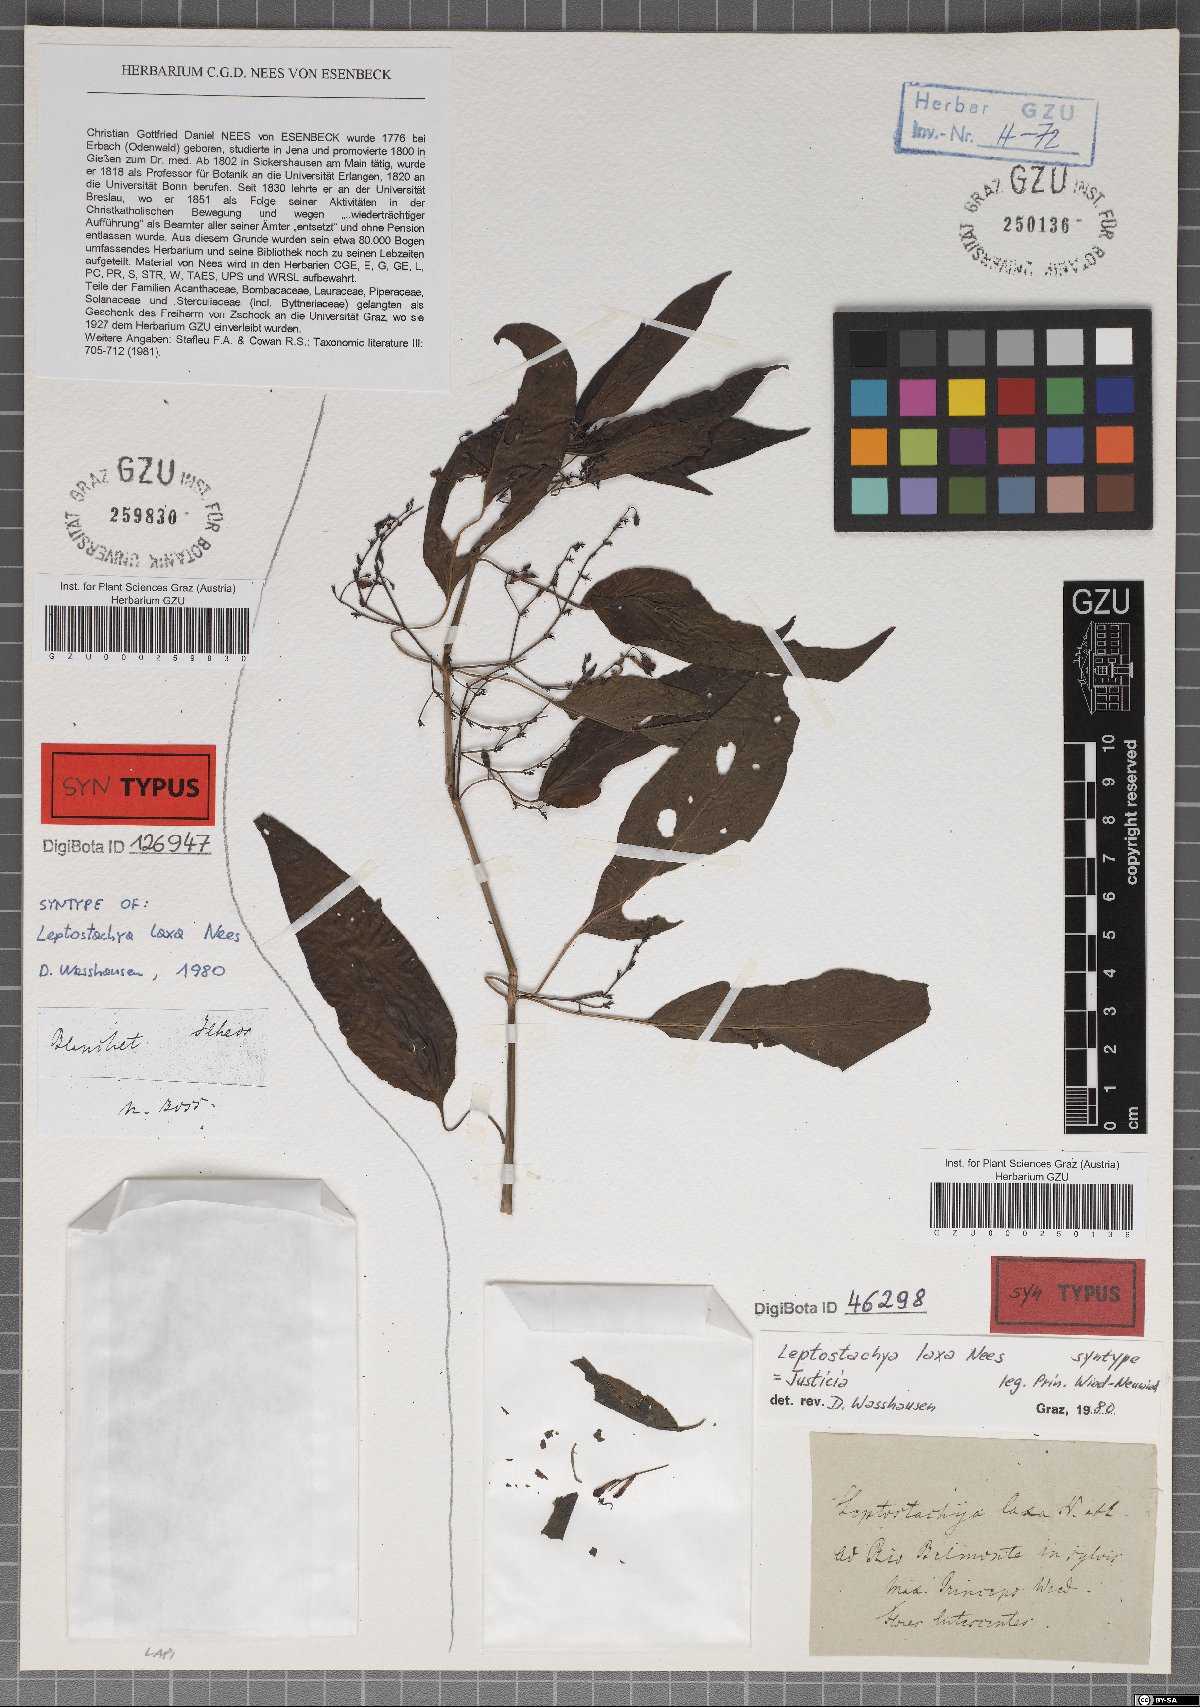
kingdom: Plantae
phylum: Tracheophyta
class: Magnoliopsida
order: Lamiales
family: Acanthaceae
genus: Justicia
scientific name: Justicia flosculosa
